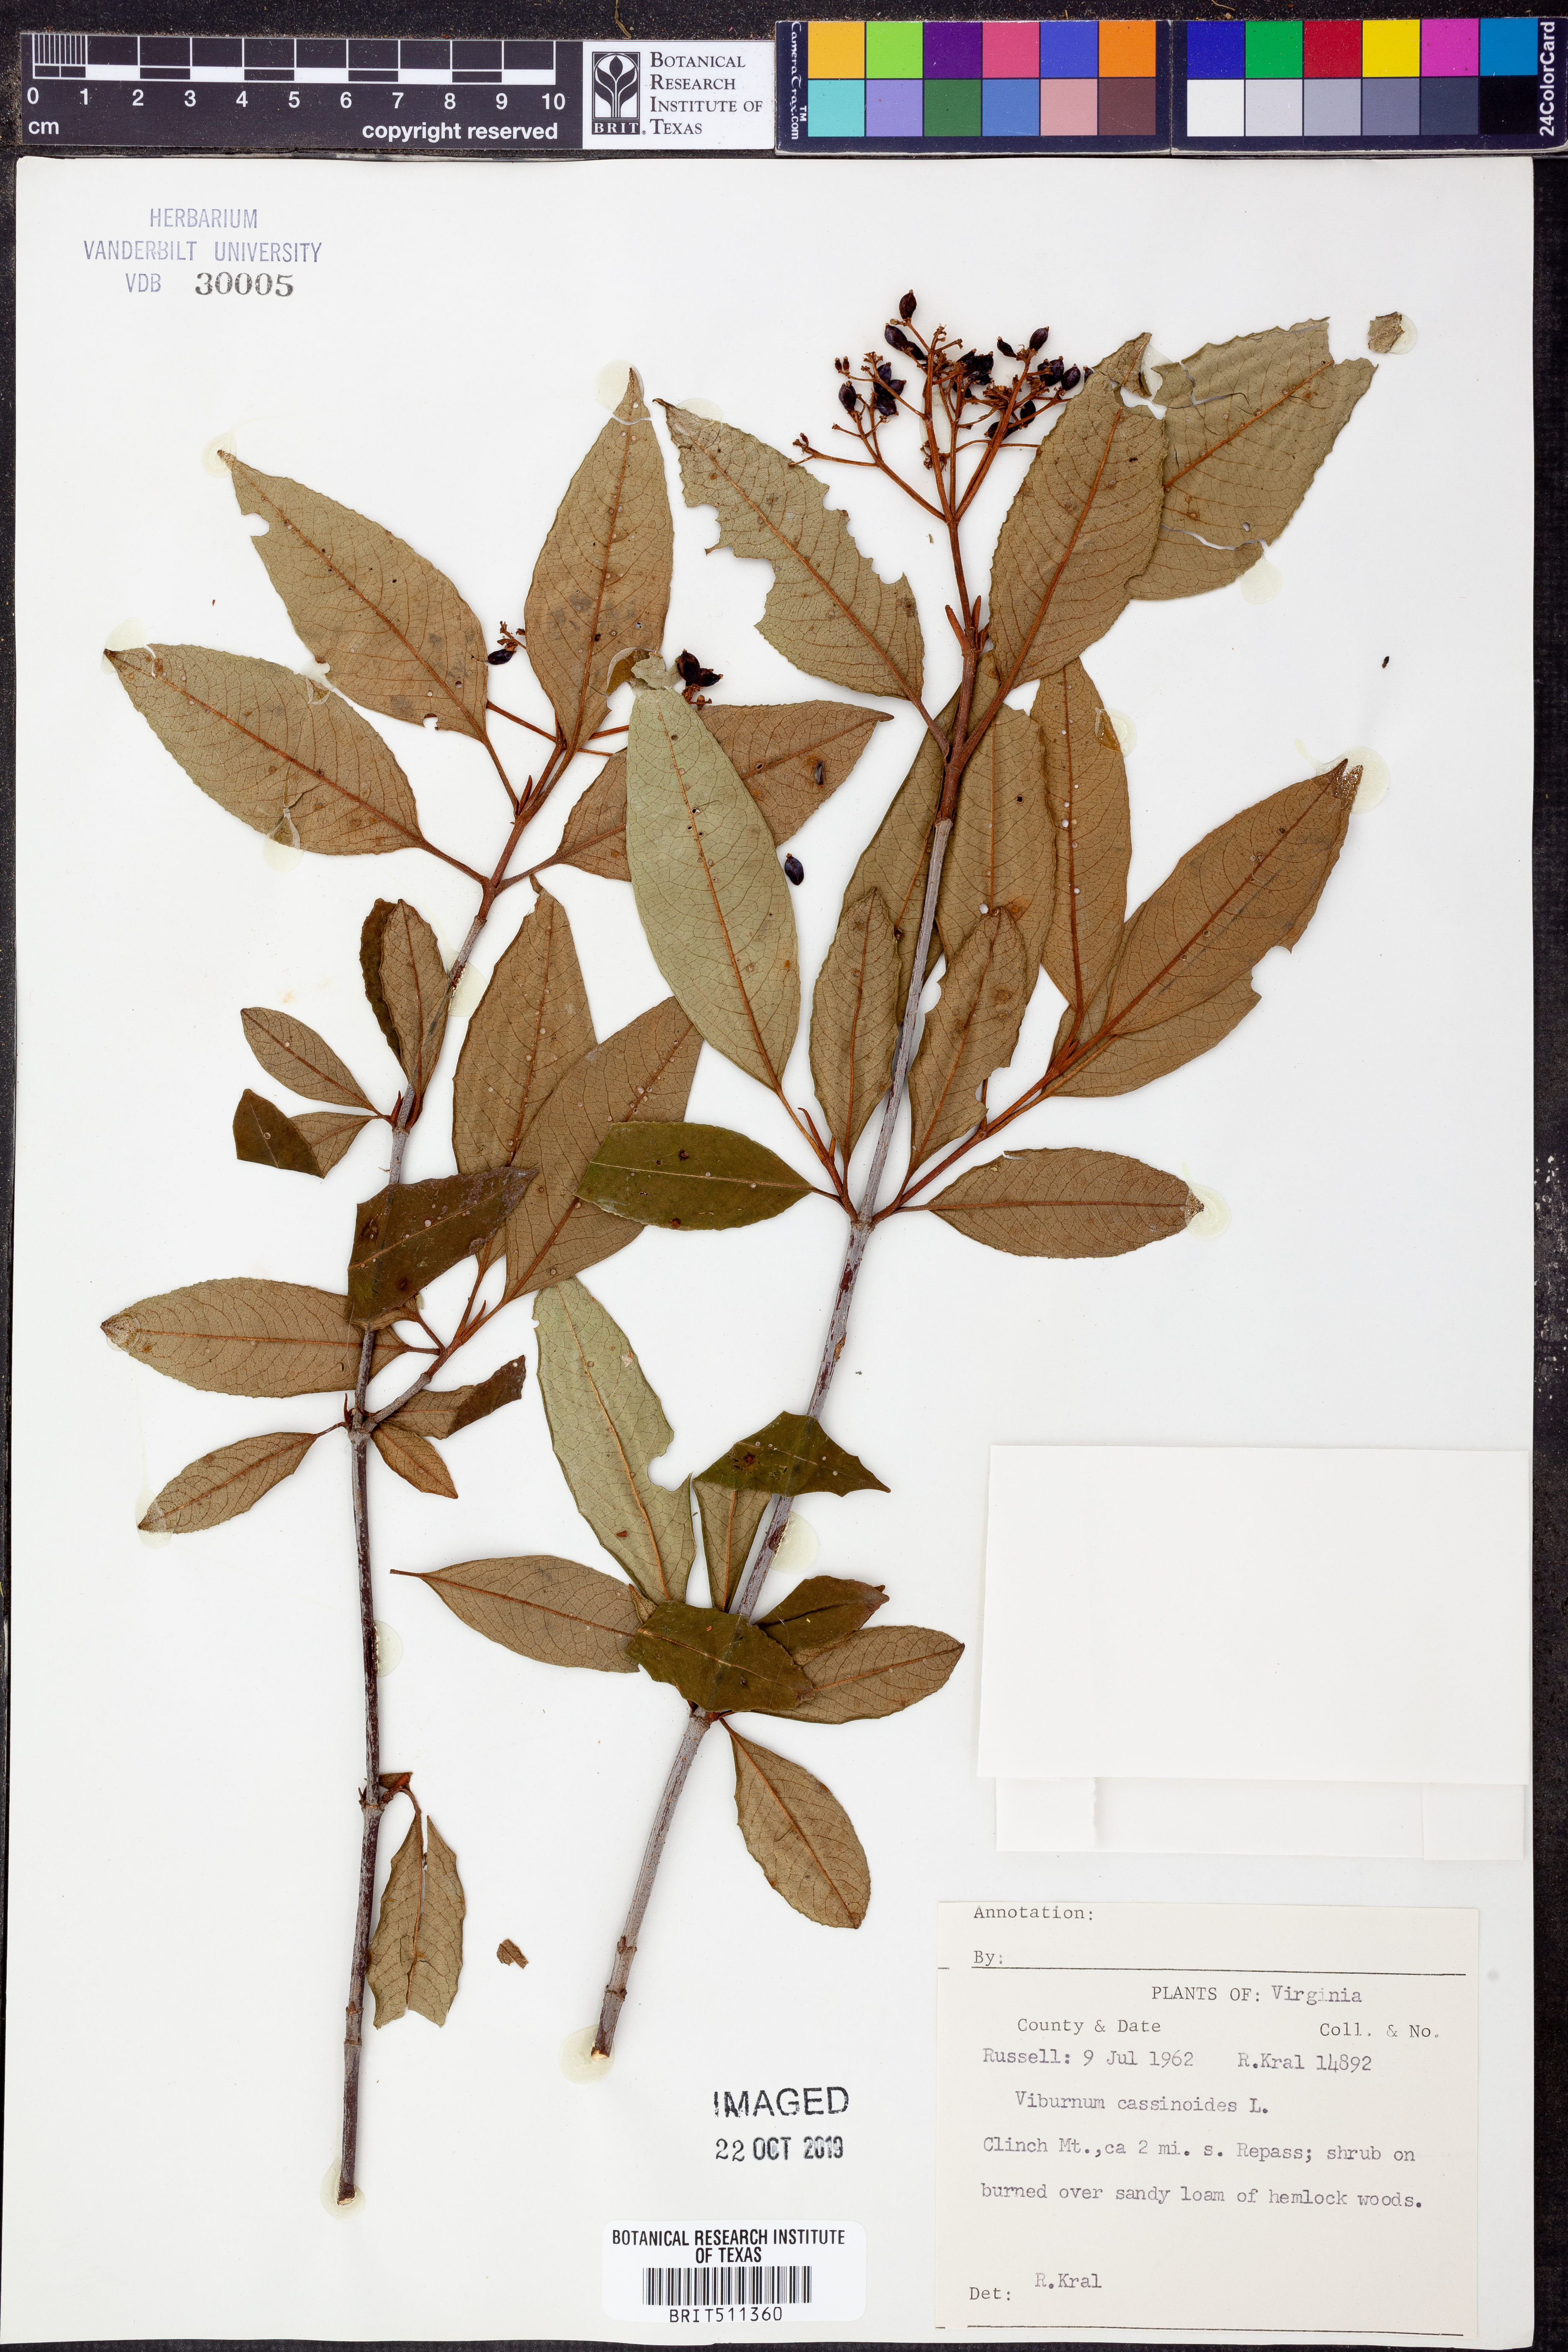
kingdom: Plantae
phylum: Tracheophyta
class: Magnoliopsida
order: Dipsacales
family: Viburnaceae
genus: Viburnum
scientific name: Viburnum cassinoides
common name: Swamp haw
